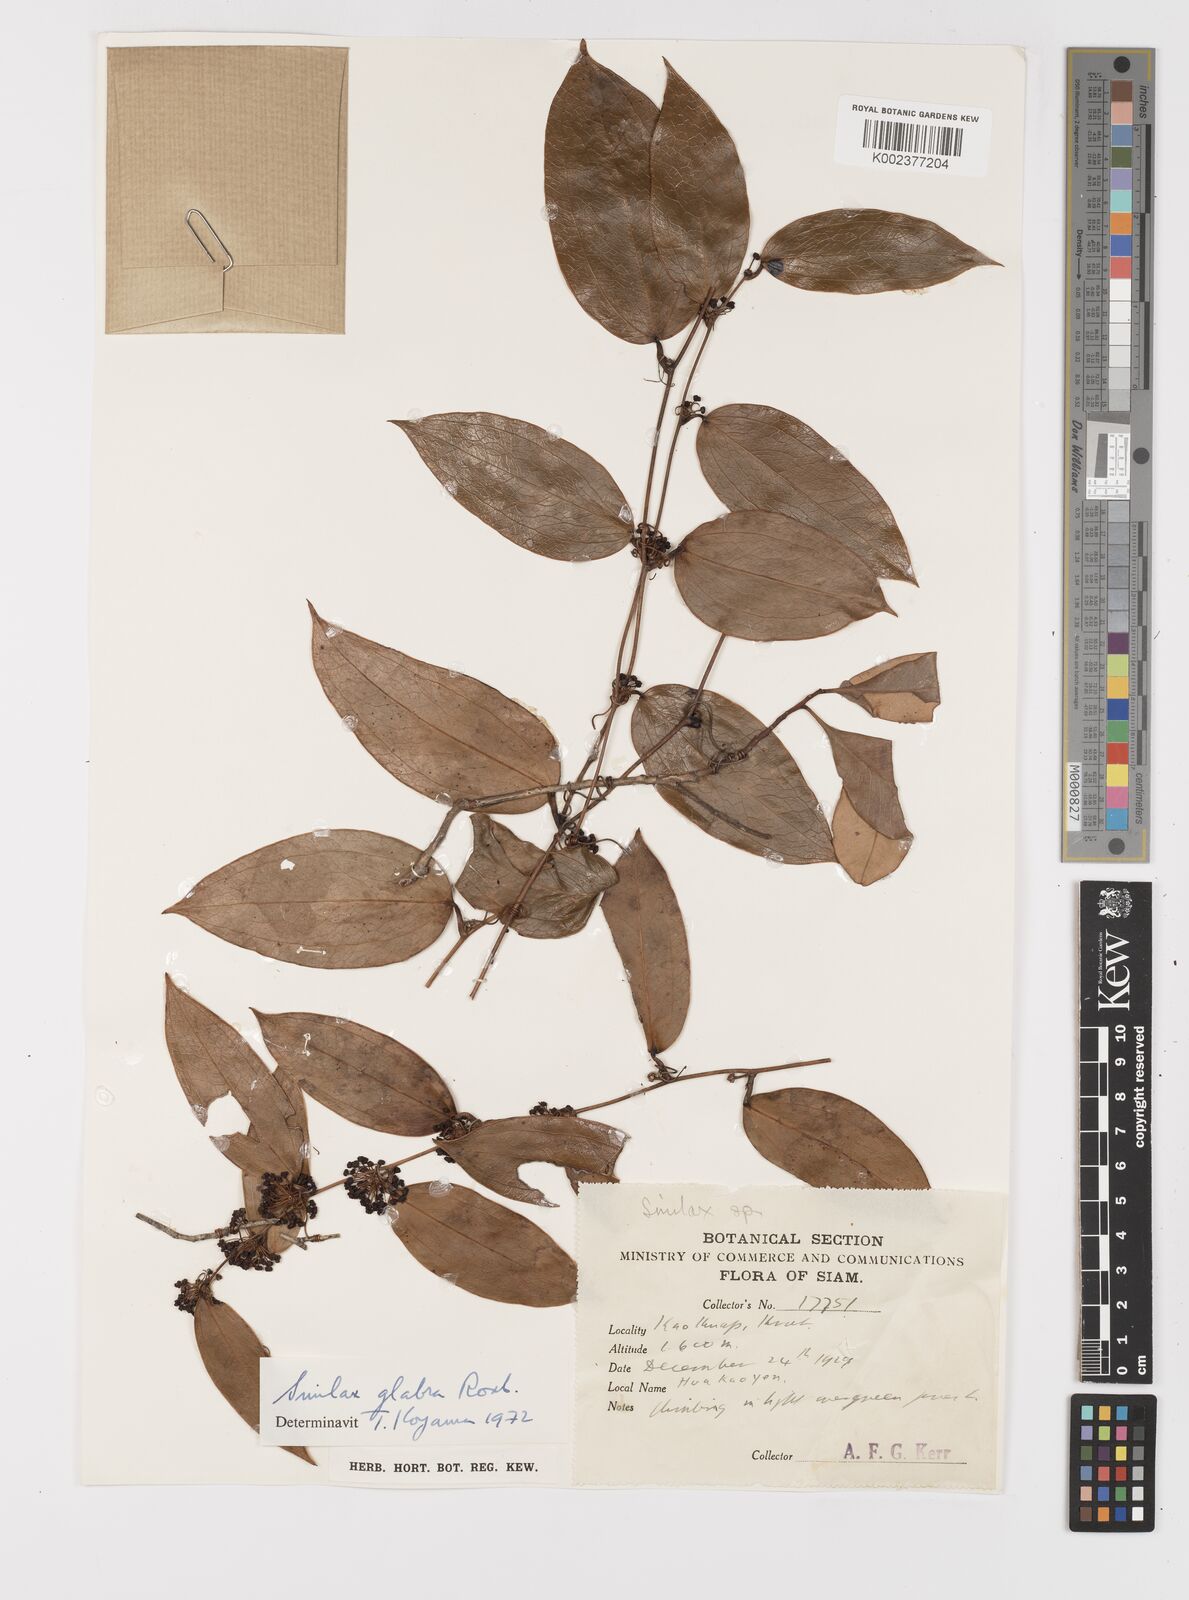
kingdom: Plantae
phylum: Tracheophyta
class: Liliopsida
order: Liliales
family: Smilacaceae
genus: Smilax
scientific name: Smilax glabra
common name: Chinese smilax
